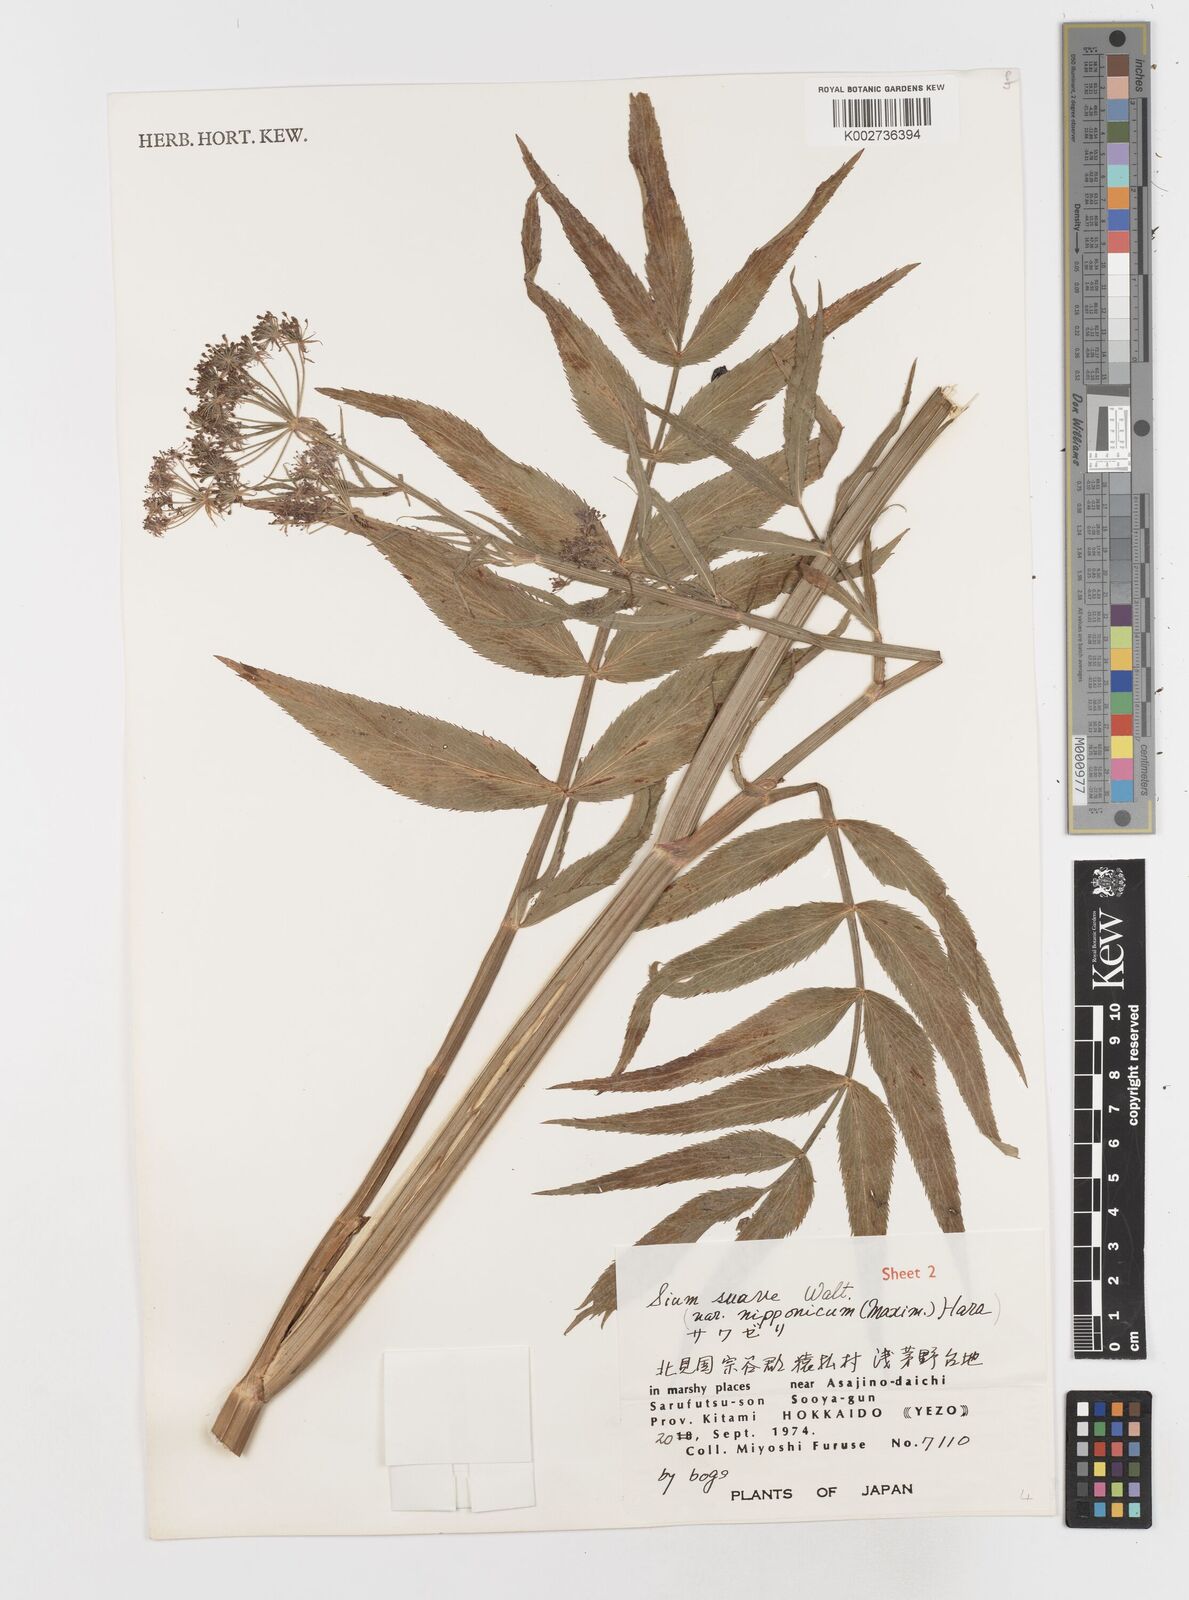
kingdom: Plantae
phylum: Tracheophyta
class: Magnoliopsida
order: Apiales
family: Apiaceae
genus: Sium
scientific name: Sium suave
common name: Hemlock water-parsnip
